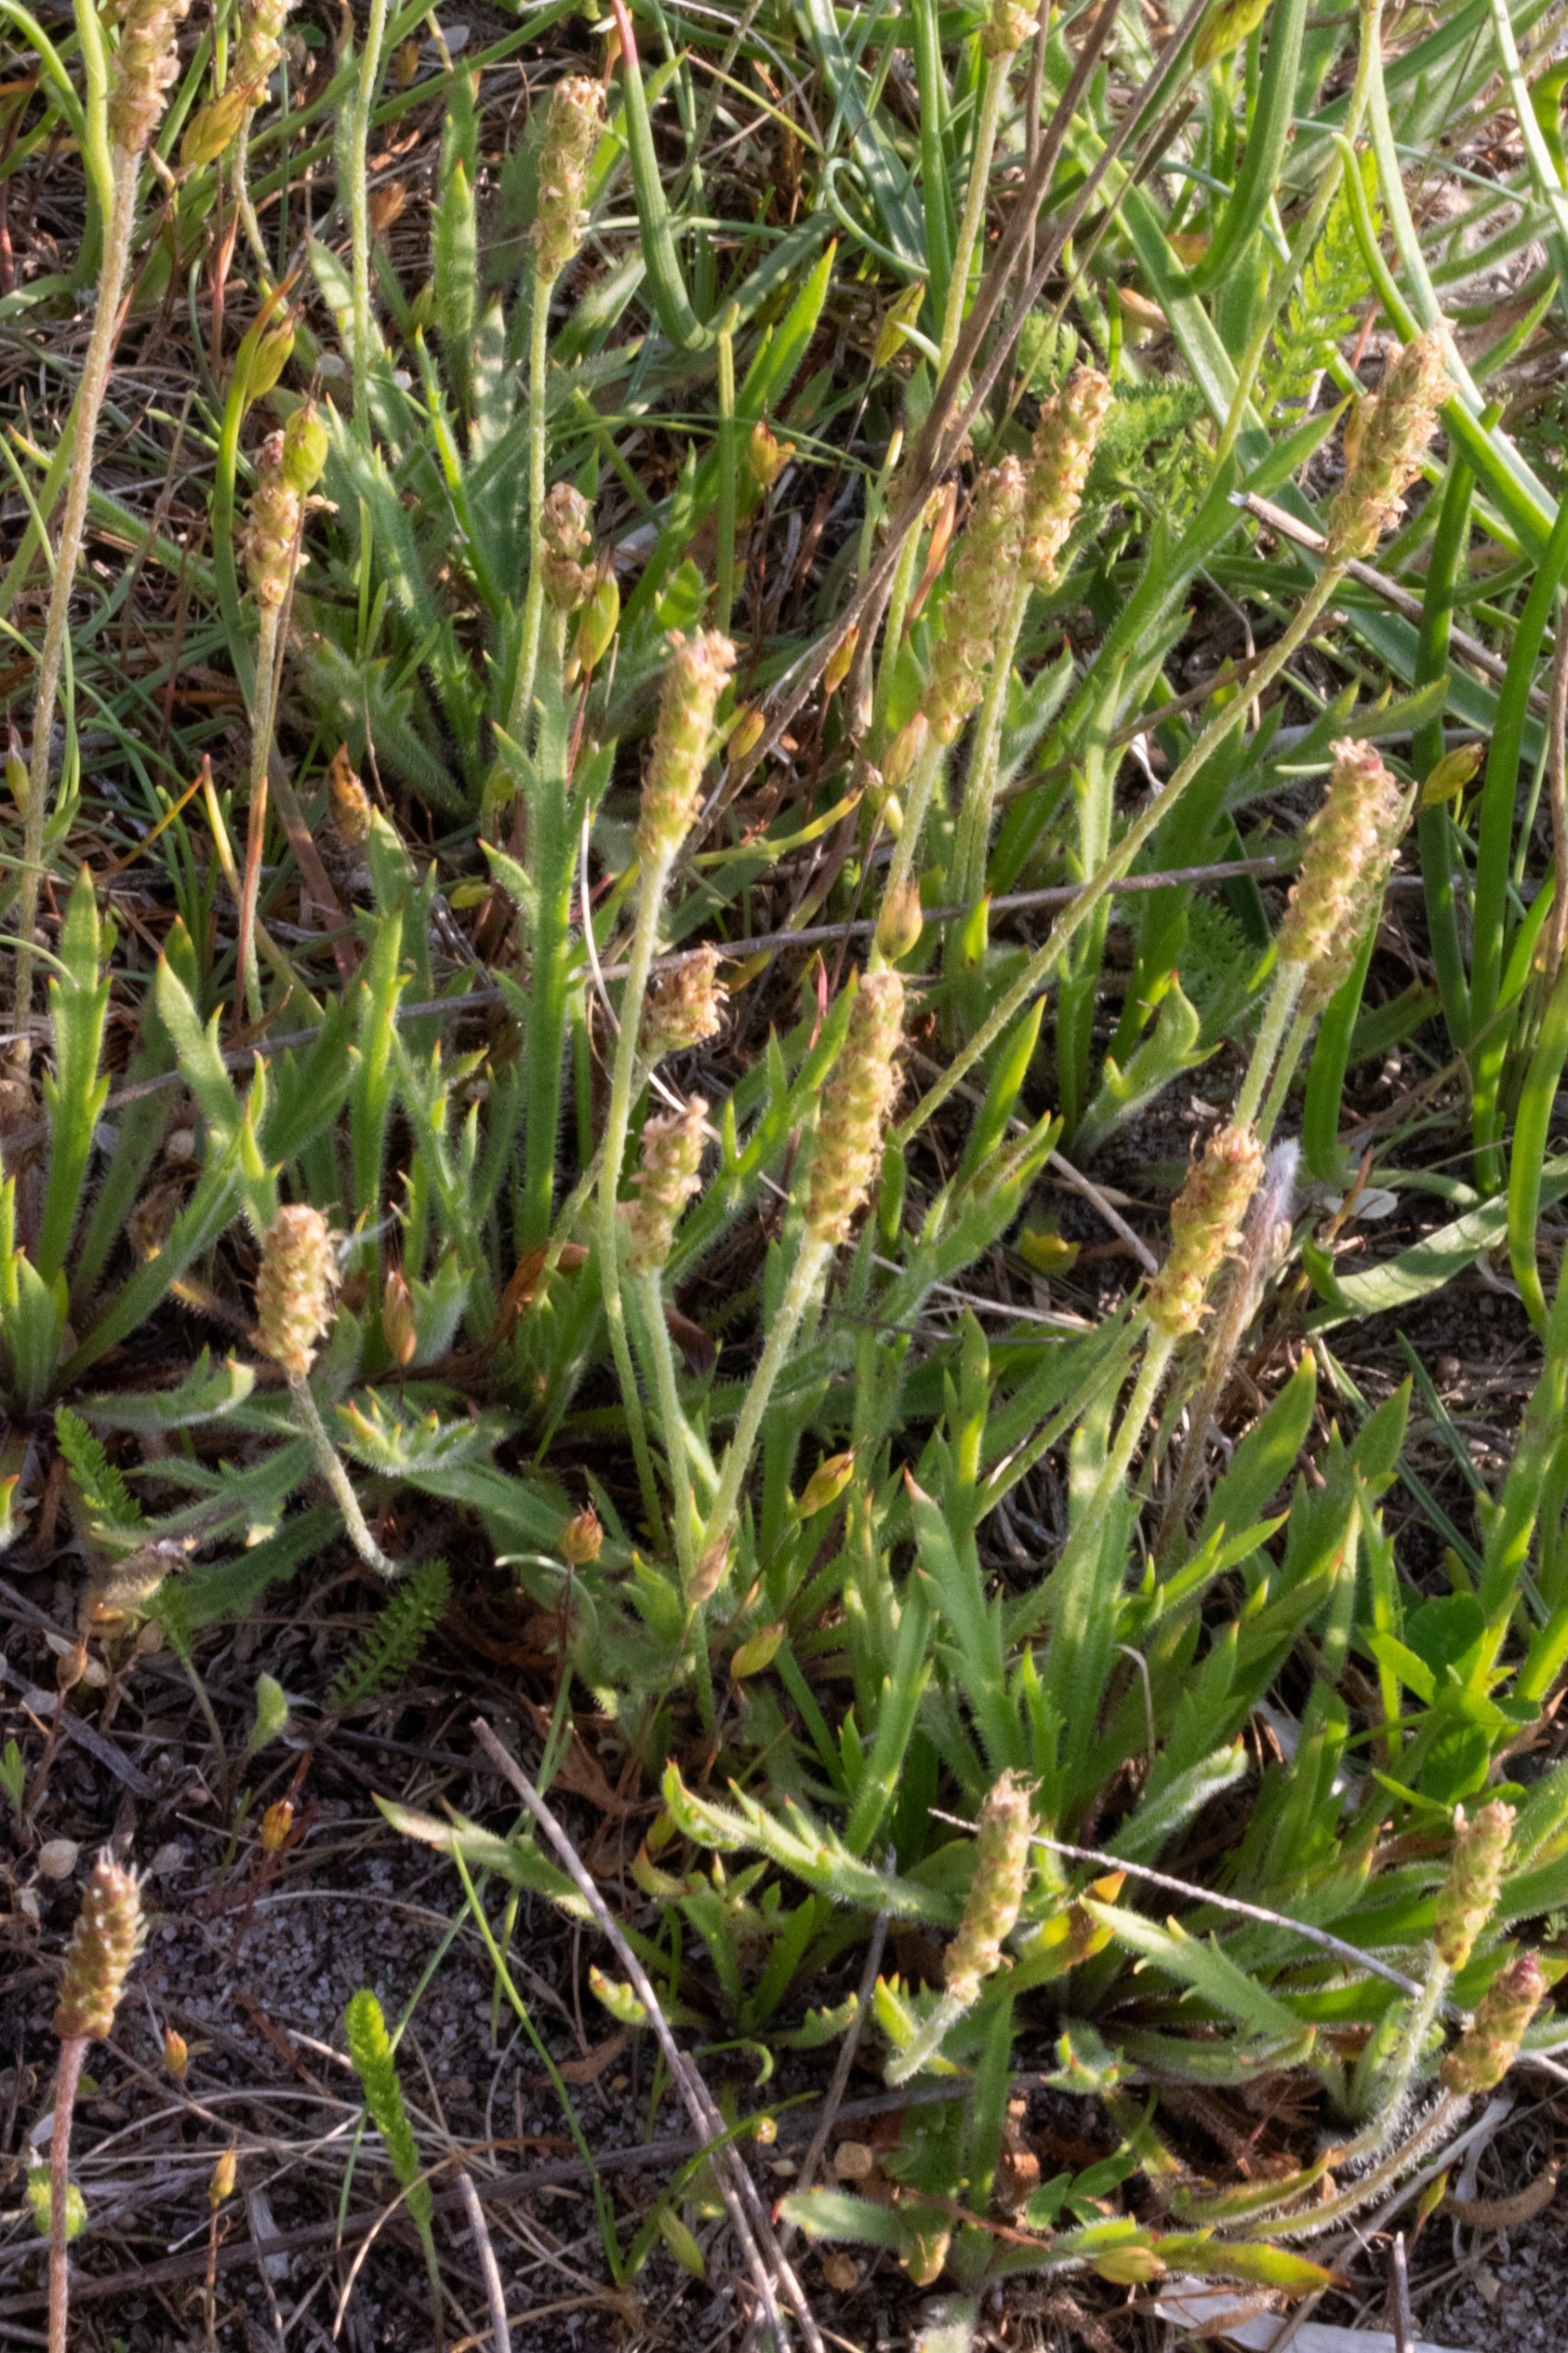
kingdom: Plantae
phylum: Tracheophyta
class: Magnoliopsida
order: Lamiales
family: Plantaginaceae
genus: Plantago
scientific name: Plantago coronopus
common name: Fliget vejbred
